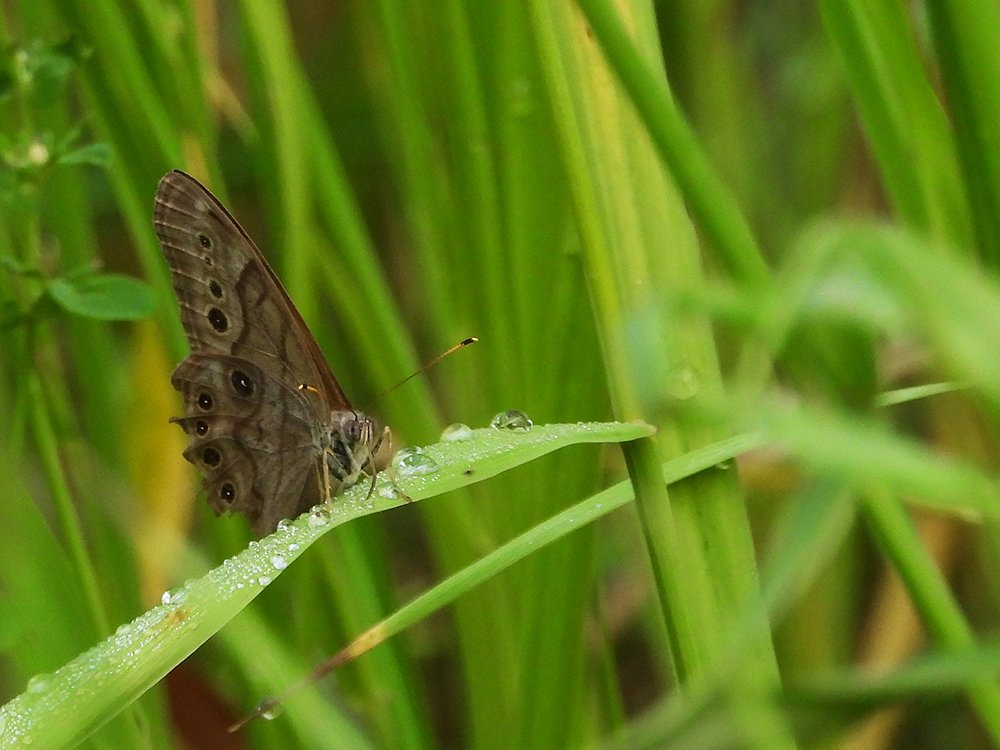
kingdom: Animalia
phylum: Arthropoda
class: Insecta
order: Lepidoptera
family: Nymphalidae
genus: Lethe
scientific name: Lethe anthedon
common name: Northern Pearly-Eye
